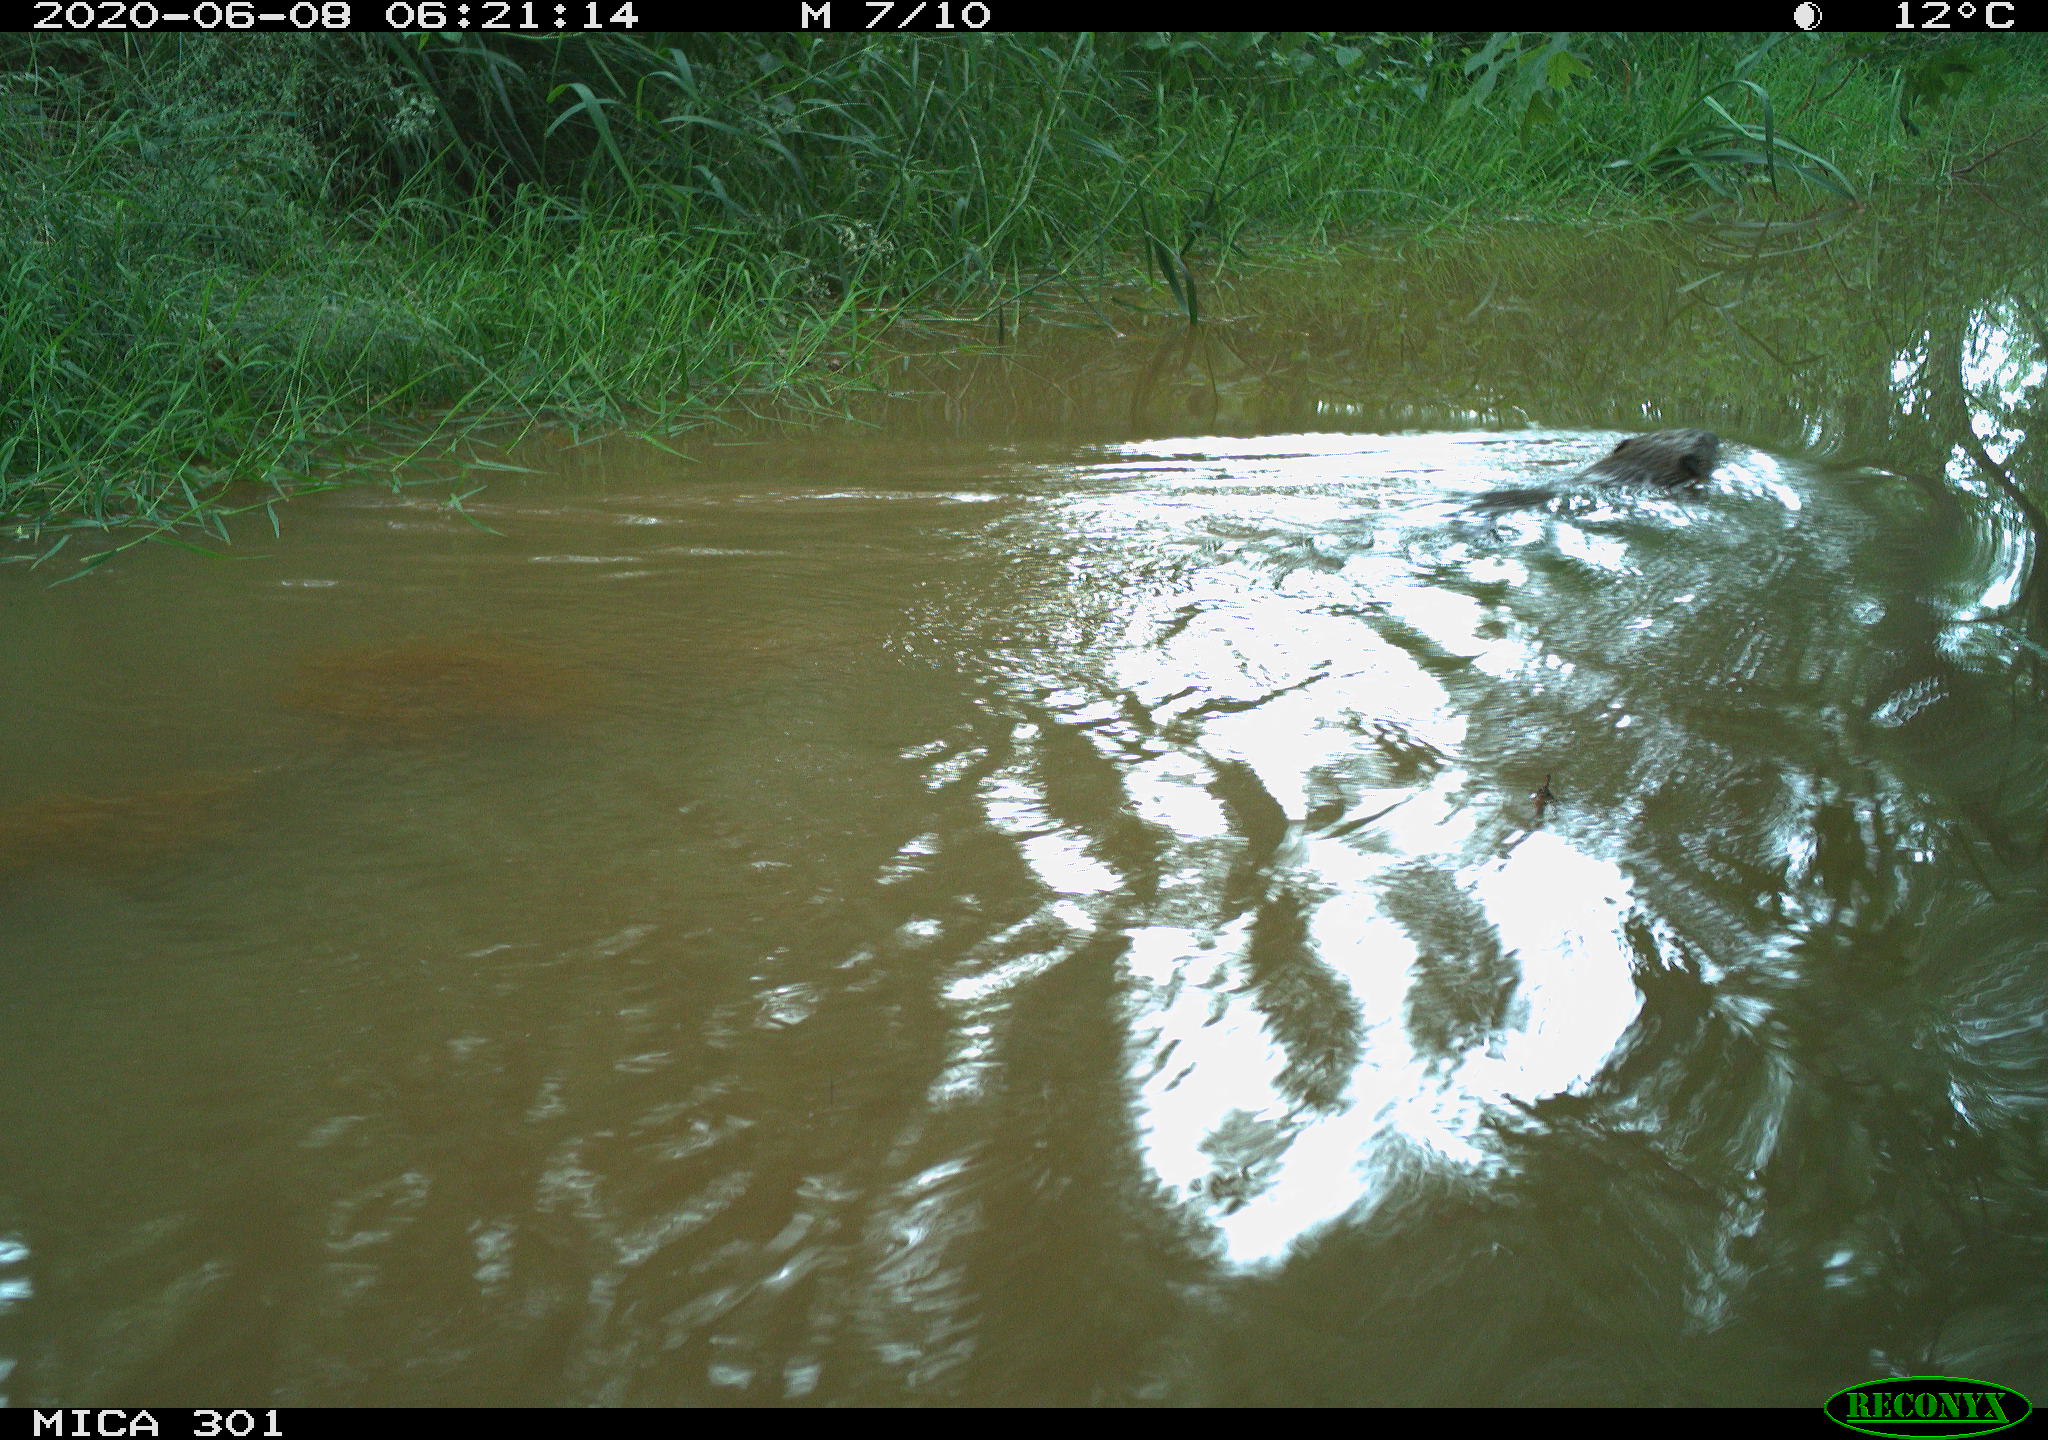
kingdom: Animalia
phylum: Chordata
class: Mammalia
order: Rodentia
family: Castoridae
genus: Castor
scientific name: Castor fiber
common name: Eurasian beaver
